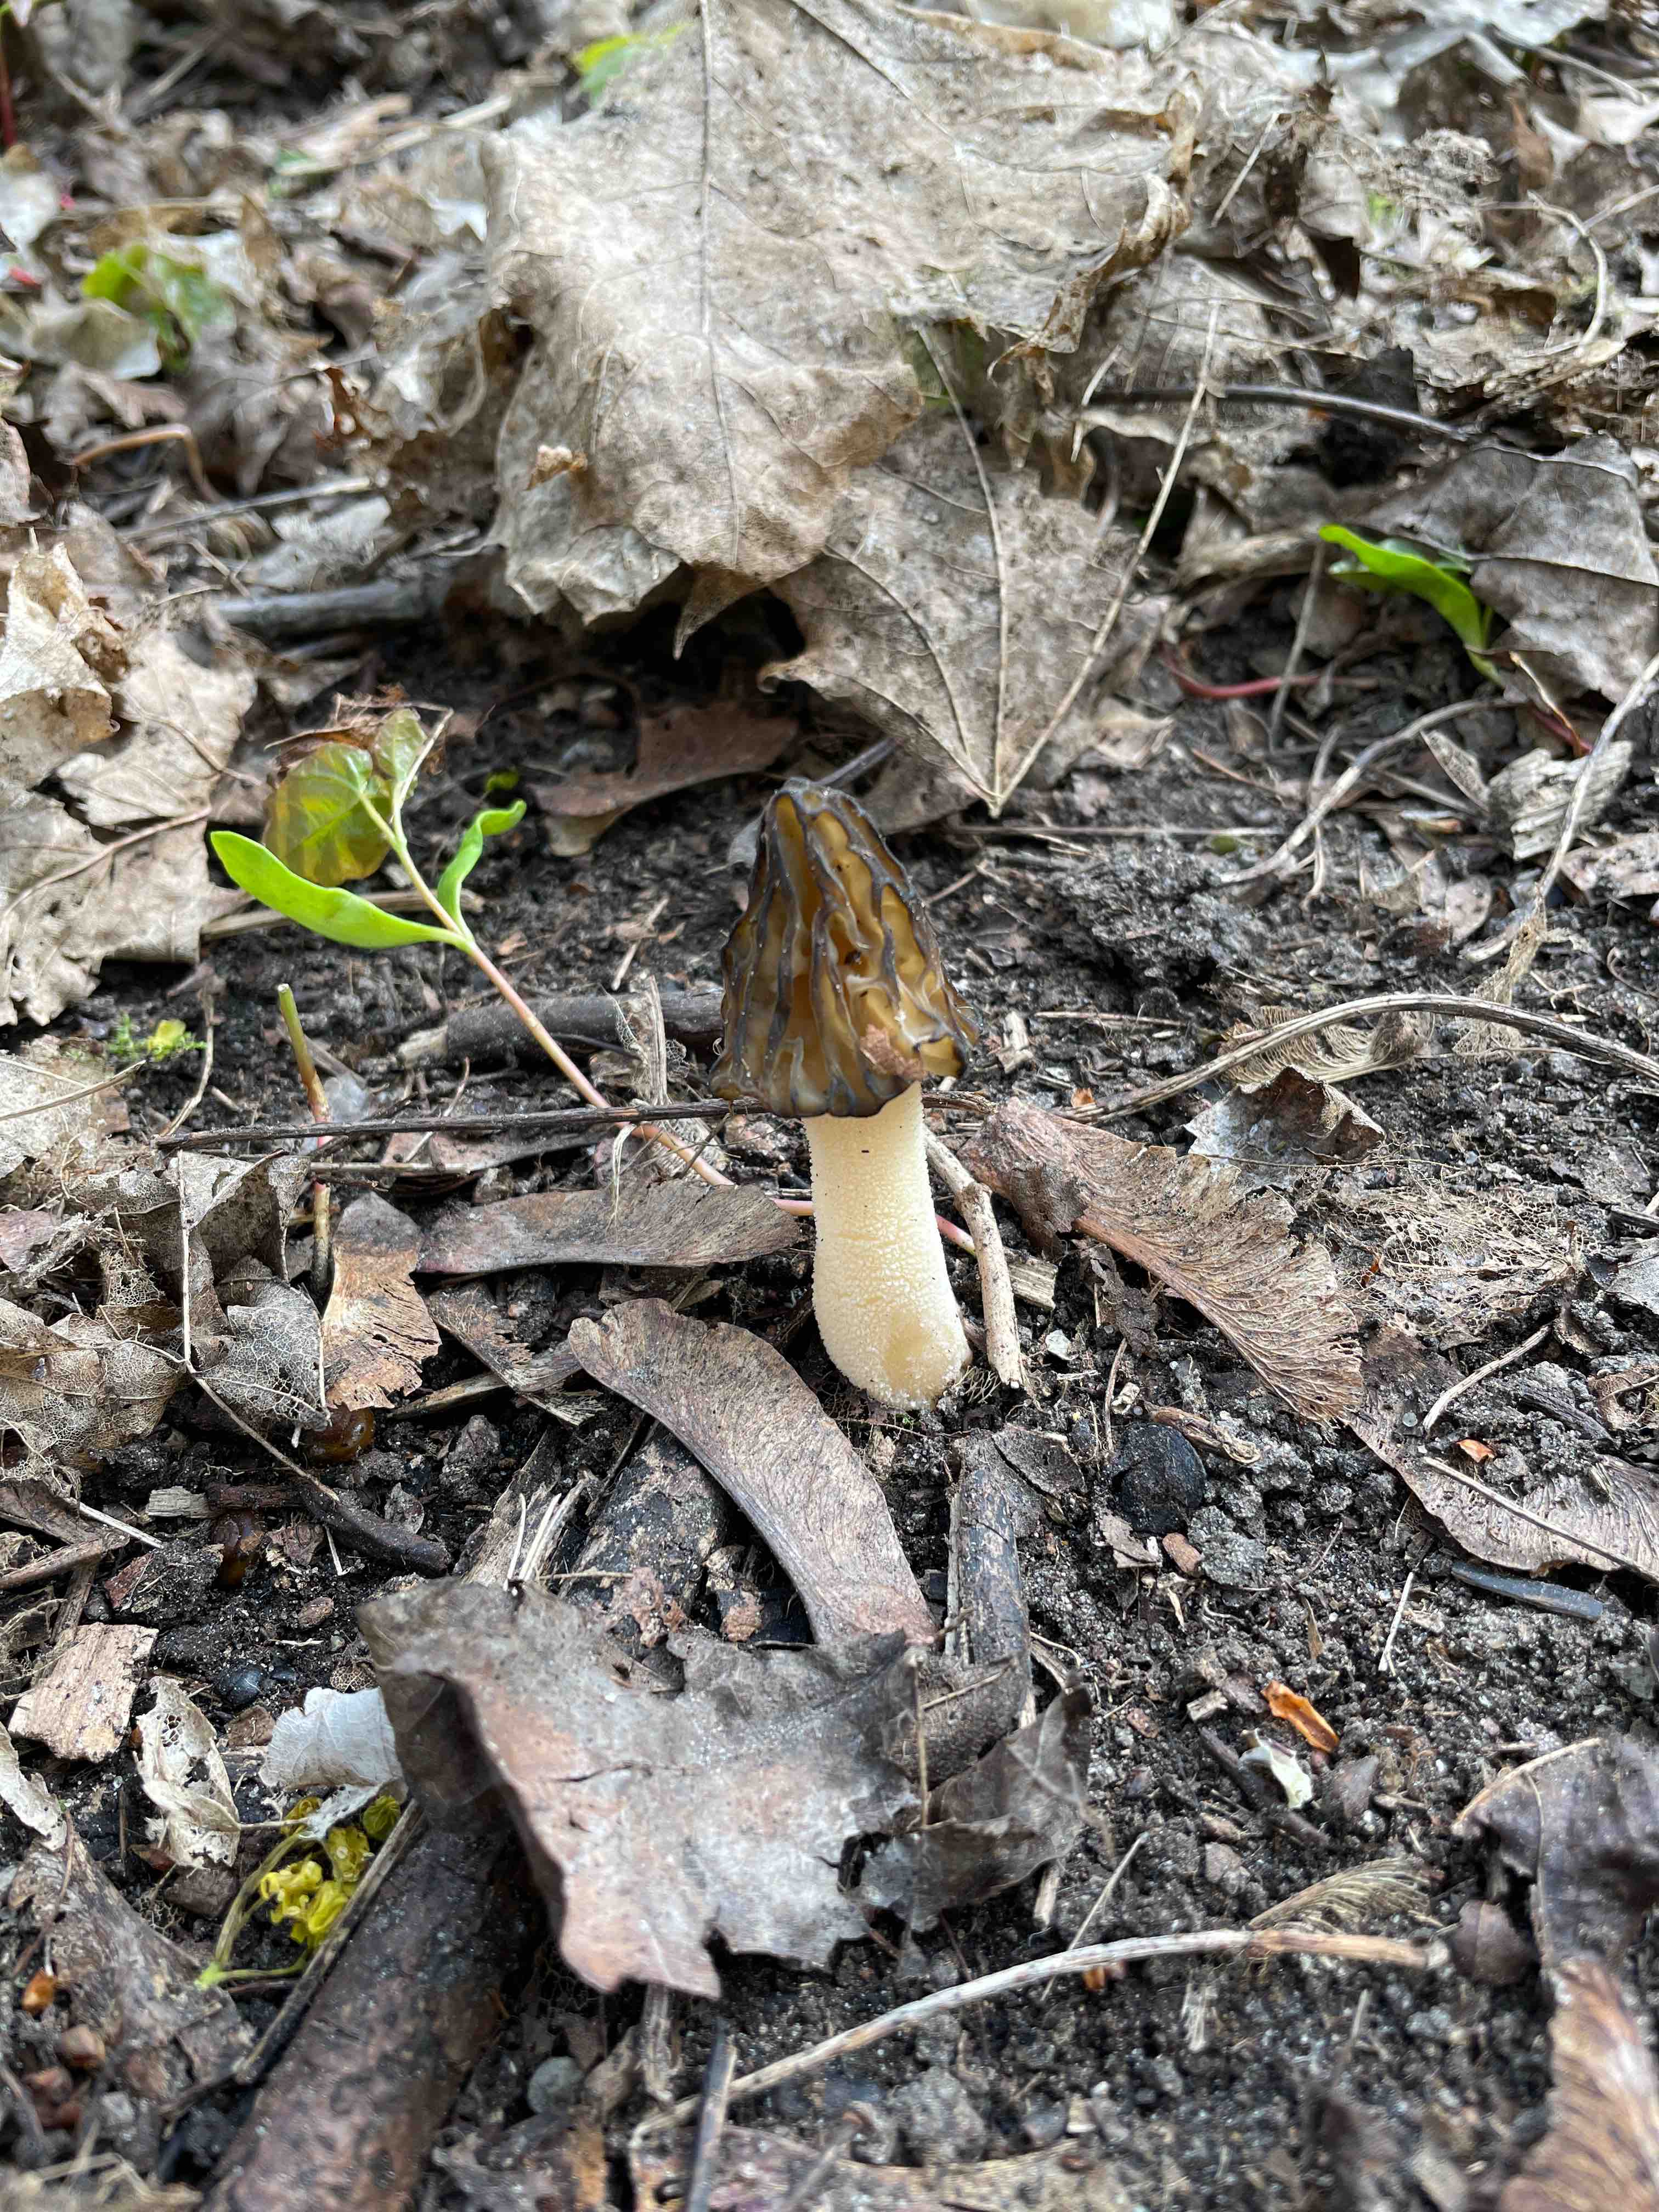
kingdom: Fungi
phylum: Ascomycota
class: Pezizomycetes
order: Pezizales
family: Morchellaceae
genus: Morchella
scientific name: Morchella semilibera
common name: hætte-morkel
